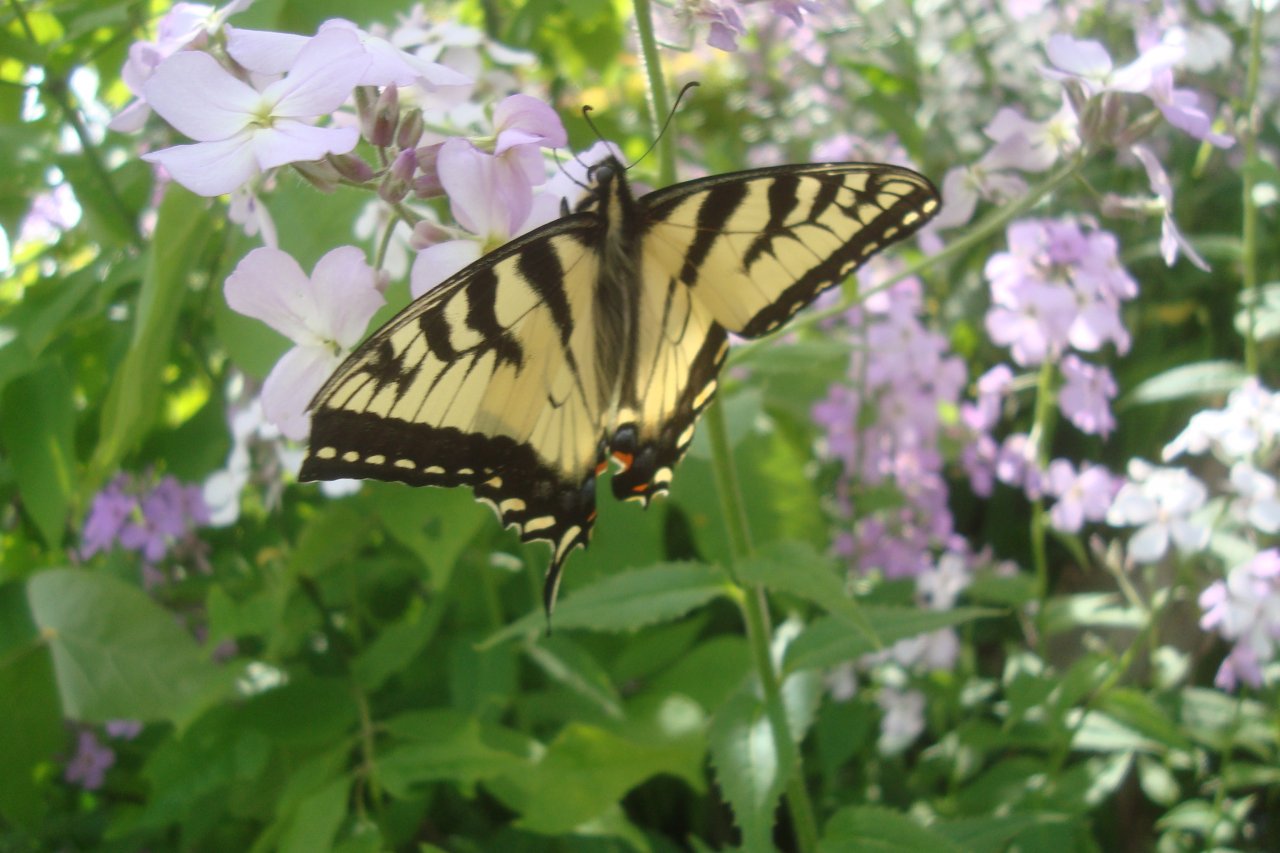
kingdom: Animalia
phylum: Arthropoda
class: Insecta
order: Lepidoptera
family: Papilionidae
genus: Pterourus
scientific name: Pterourus canadensis
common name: Canadian Tiger Swallowtail
